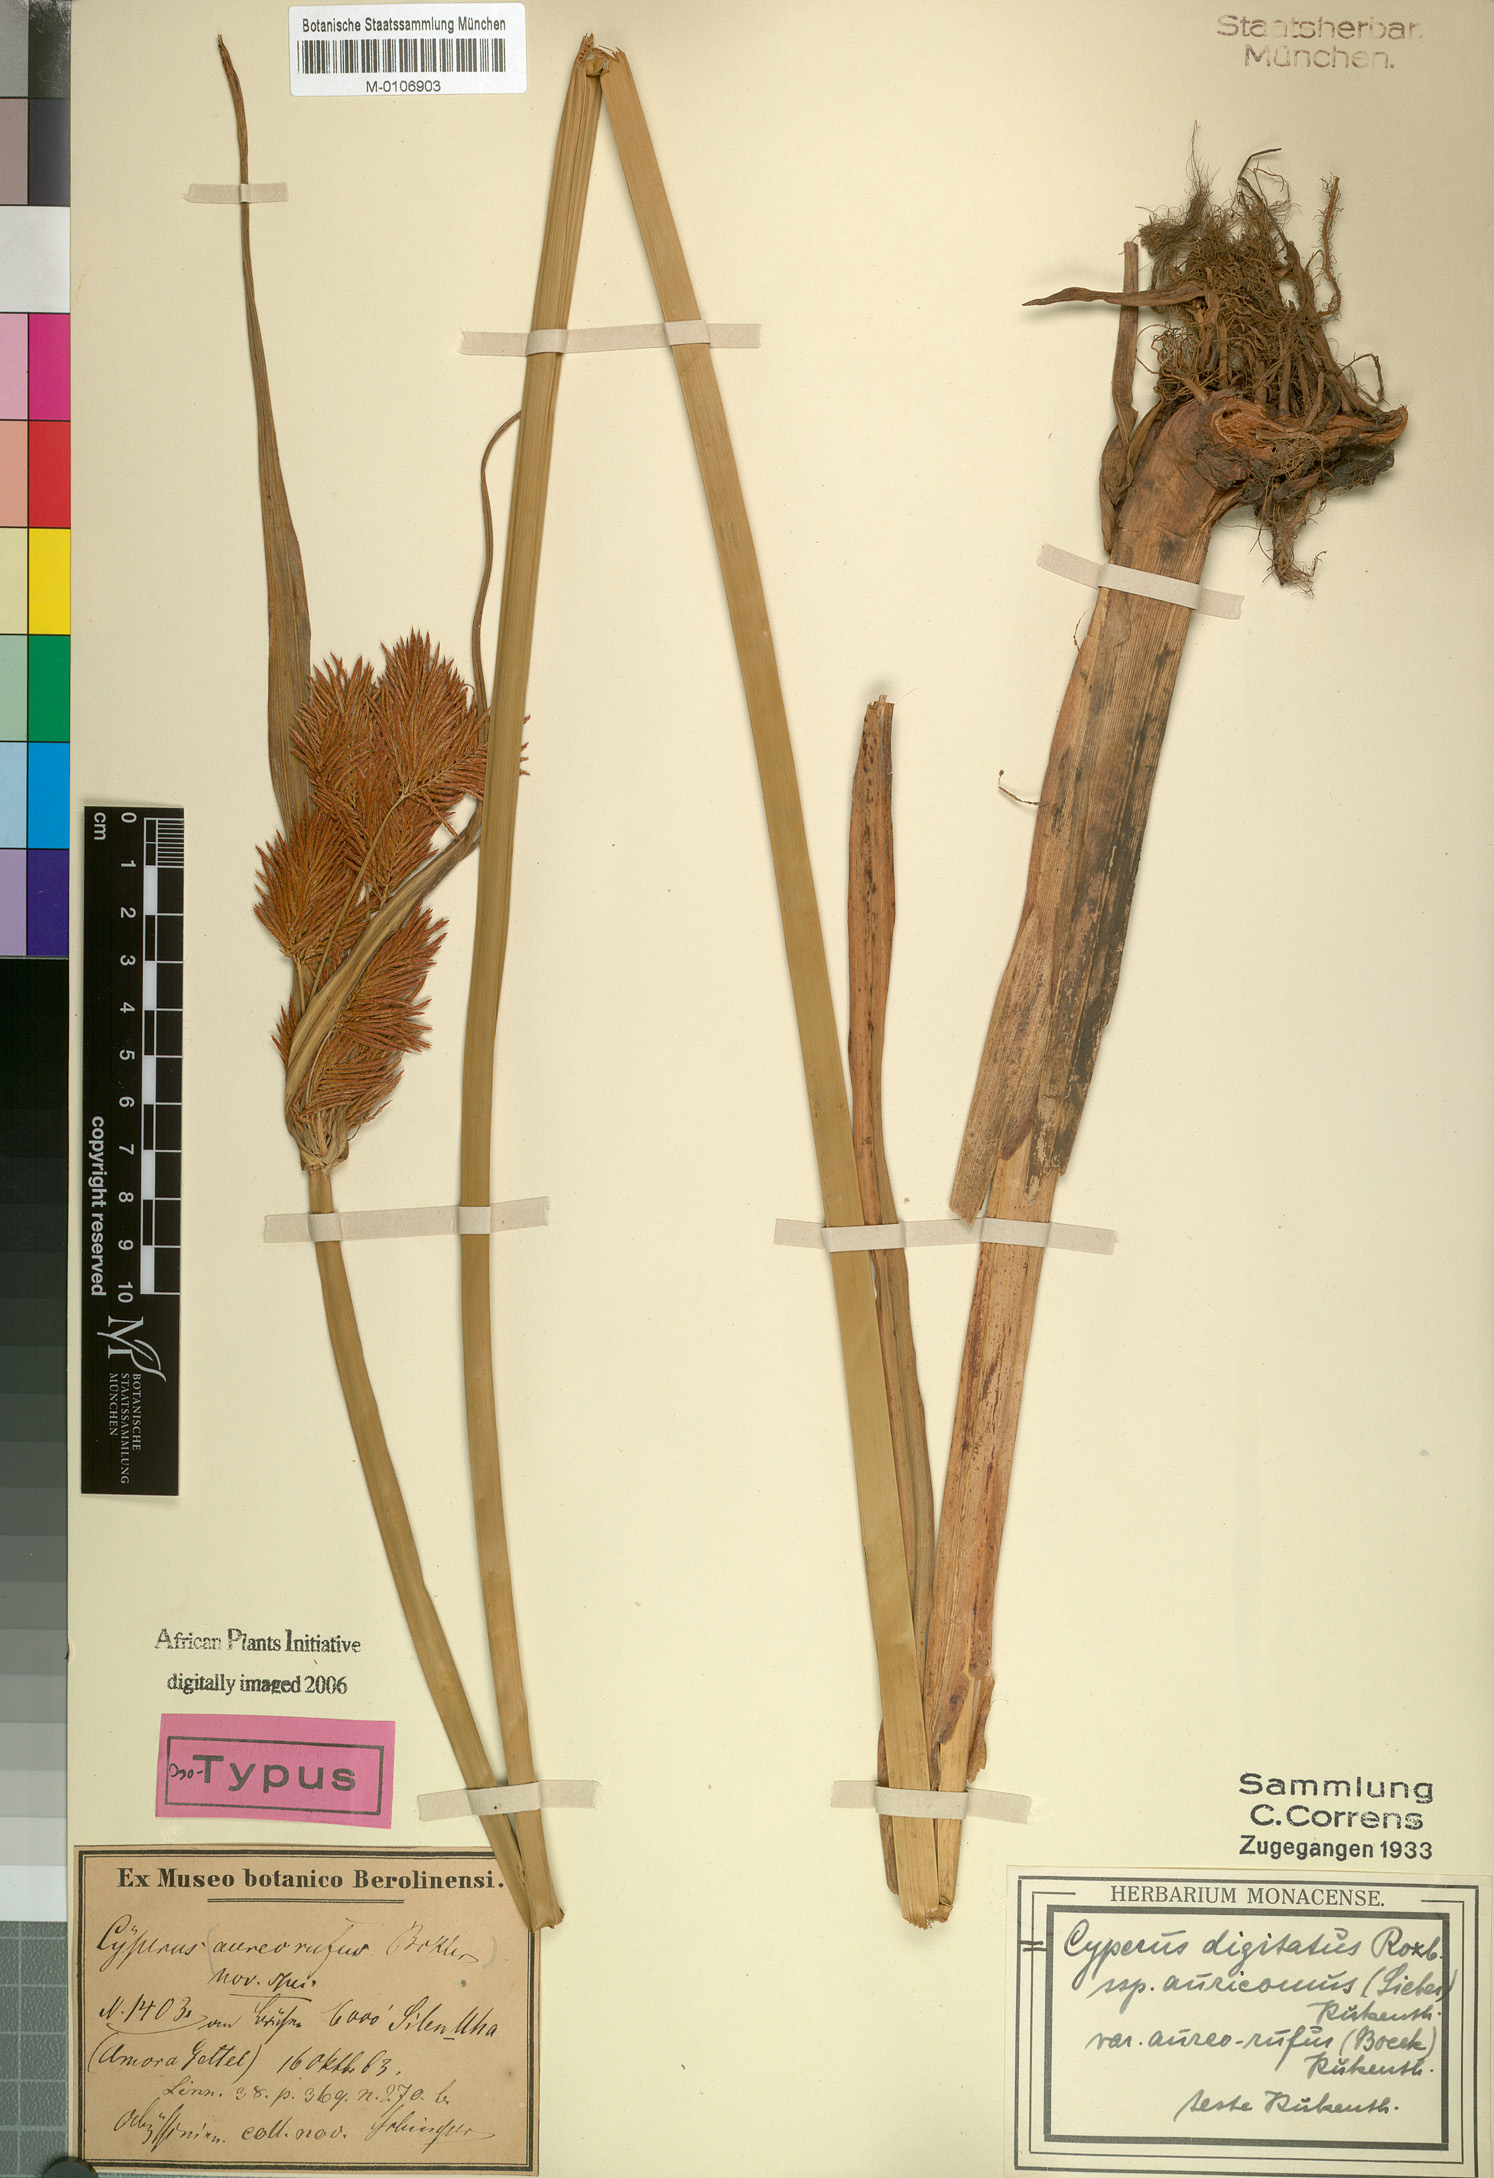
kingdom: Plantae
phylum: Tracheophyta
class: Liliopsida
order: Poales
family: Cyperaceae
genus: Cyperus
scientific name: Cyperus digitatus
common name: Finger flatsedge
